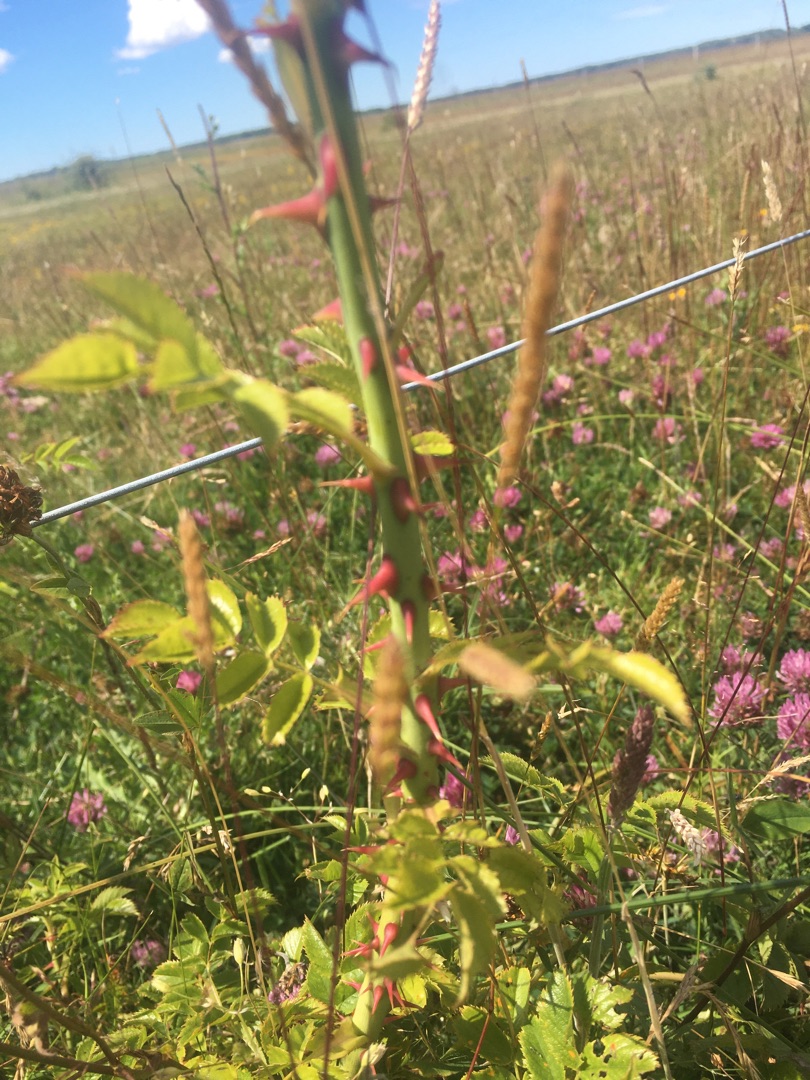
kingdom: Plantae
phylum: Tracheophyta
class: Magnoliopsida
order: Rosales
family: Rosaceae
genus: Rosa
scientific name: Rosa canina
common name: Hunde-rose
